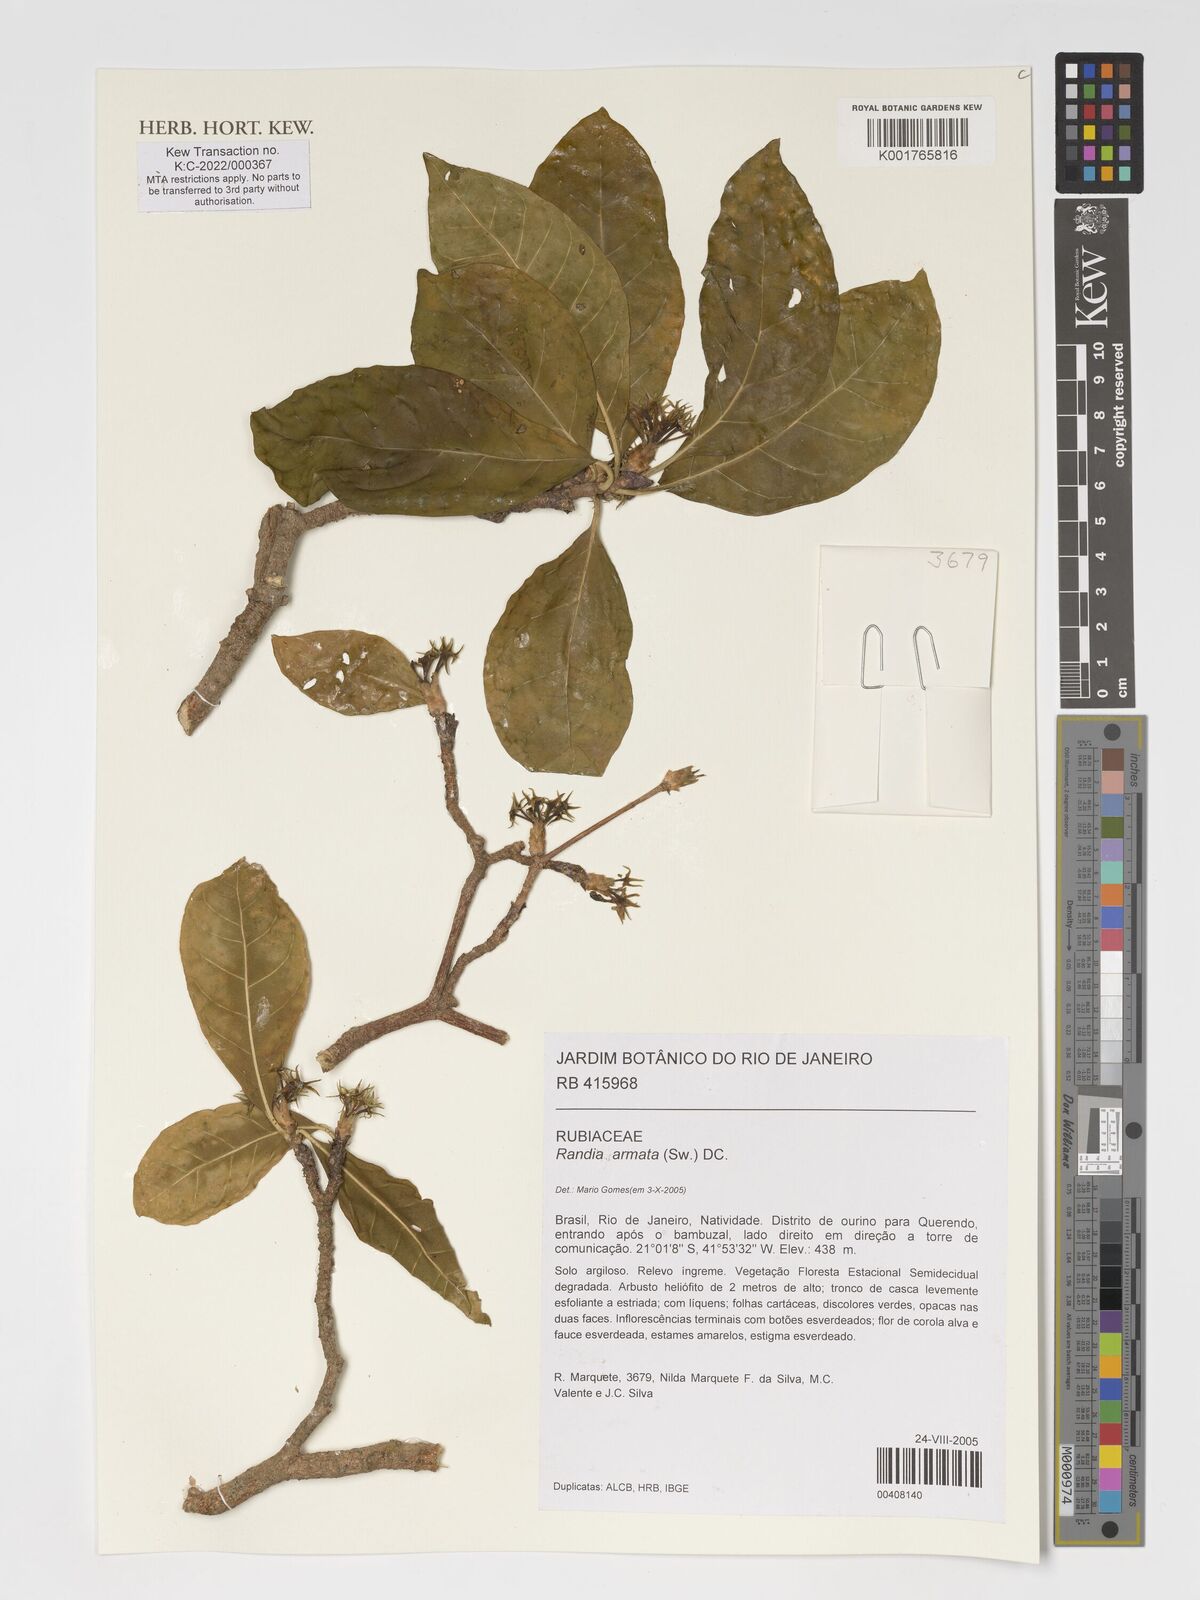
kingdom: Plantae
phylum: Tracheophyta
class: Magnoliopsida
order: Gentianales
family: Rubiaceae
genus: Randia
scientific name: Randia armata
